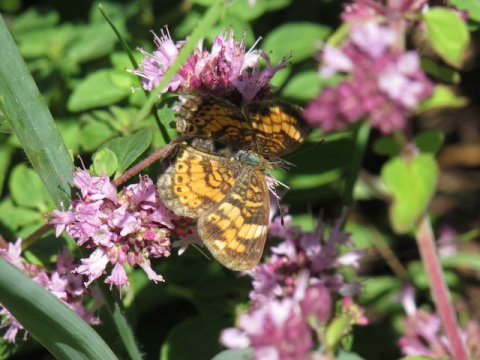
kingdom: Animalia
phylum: Arthropoda
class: Insecta
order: Lepidoptera
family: Nymphalidae
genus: Phyciodes
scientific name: Phyciodes tharos
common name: Pearl Crescent
